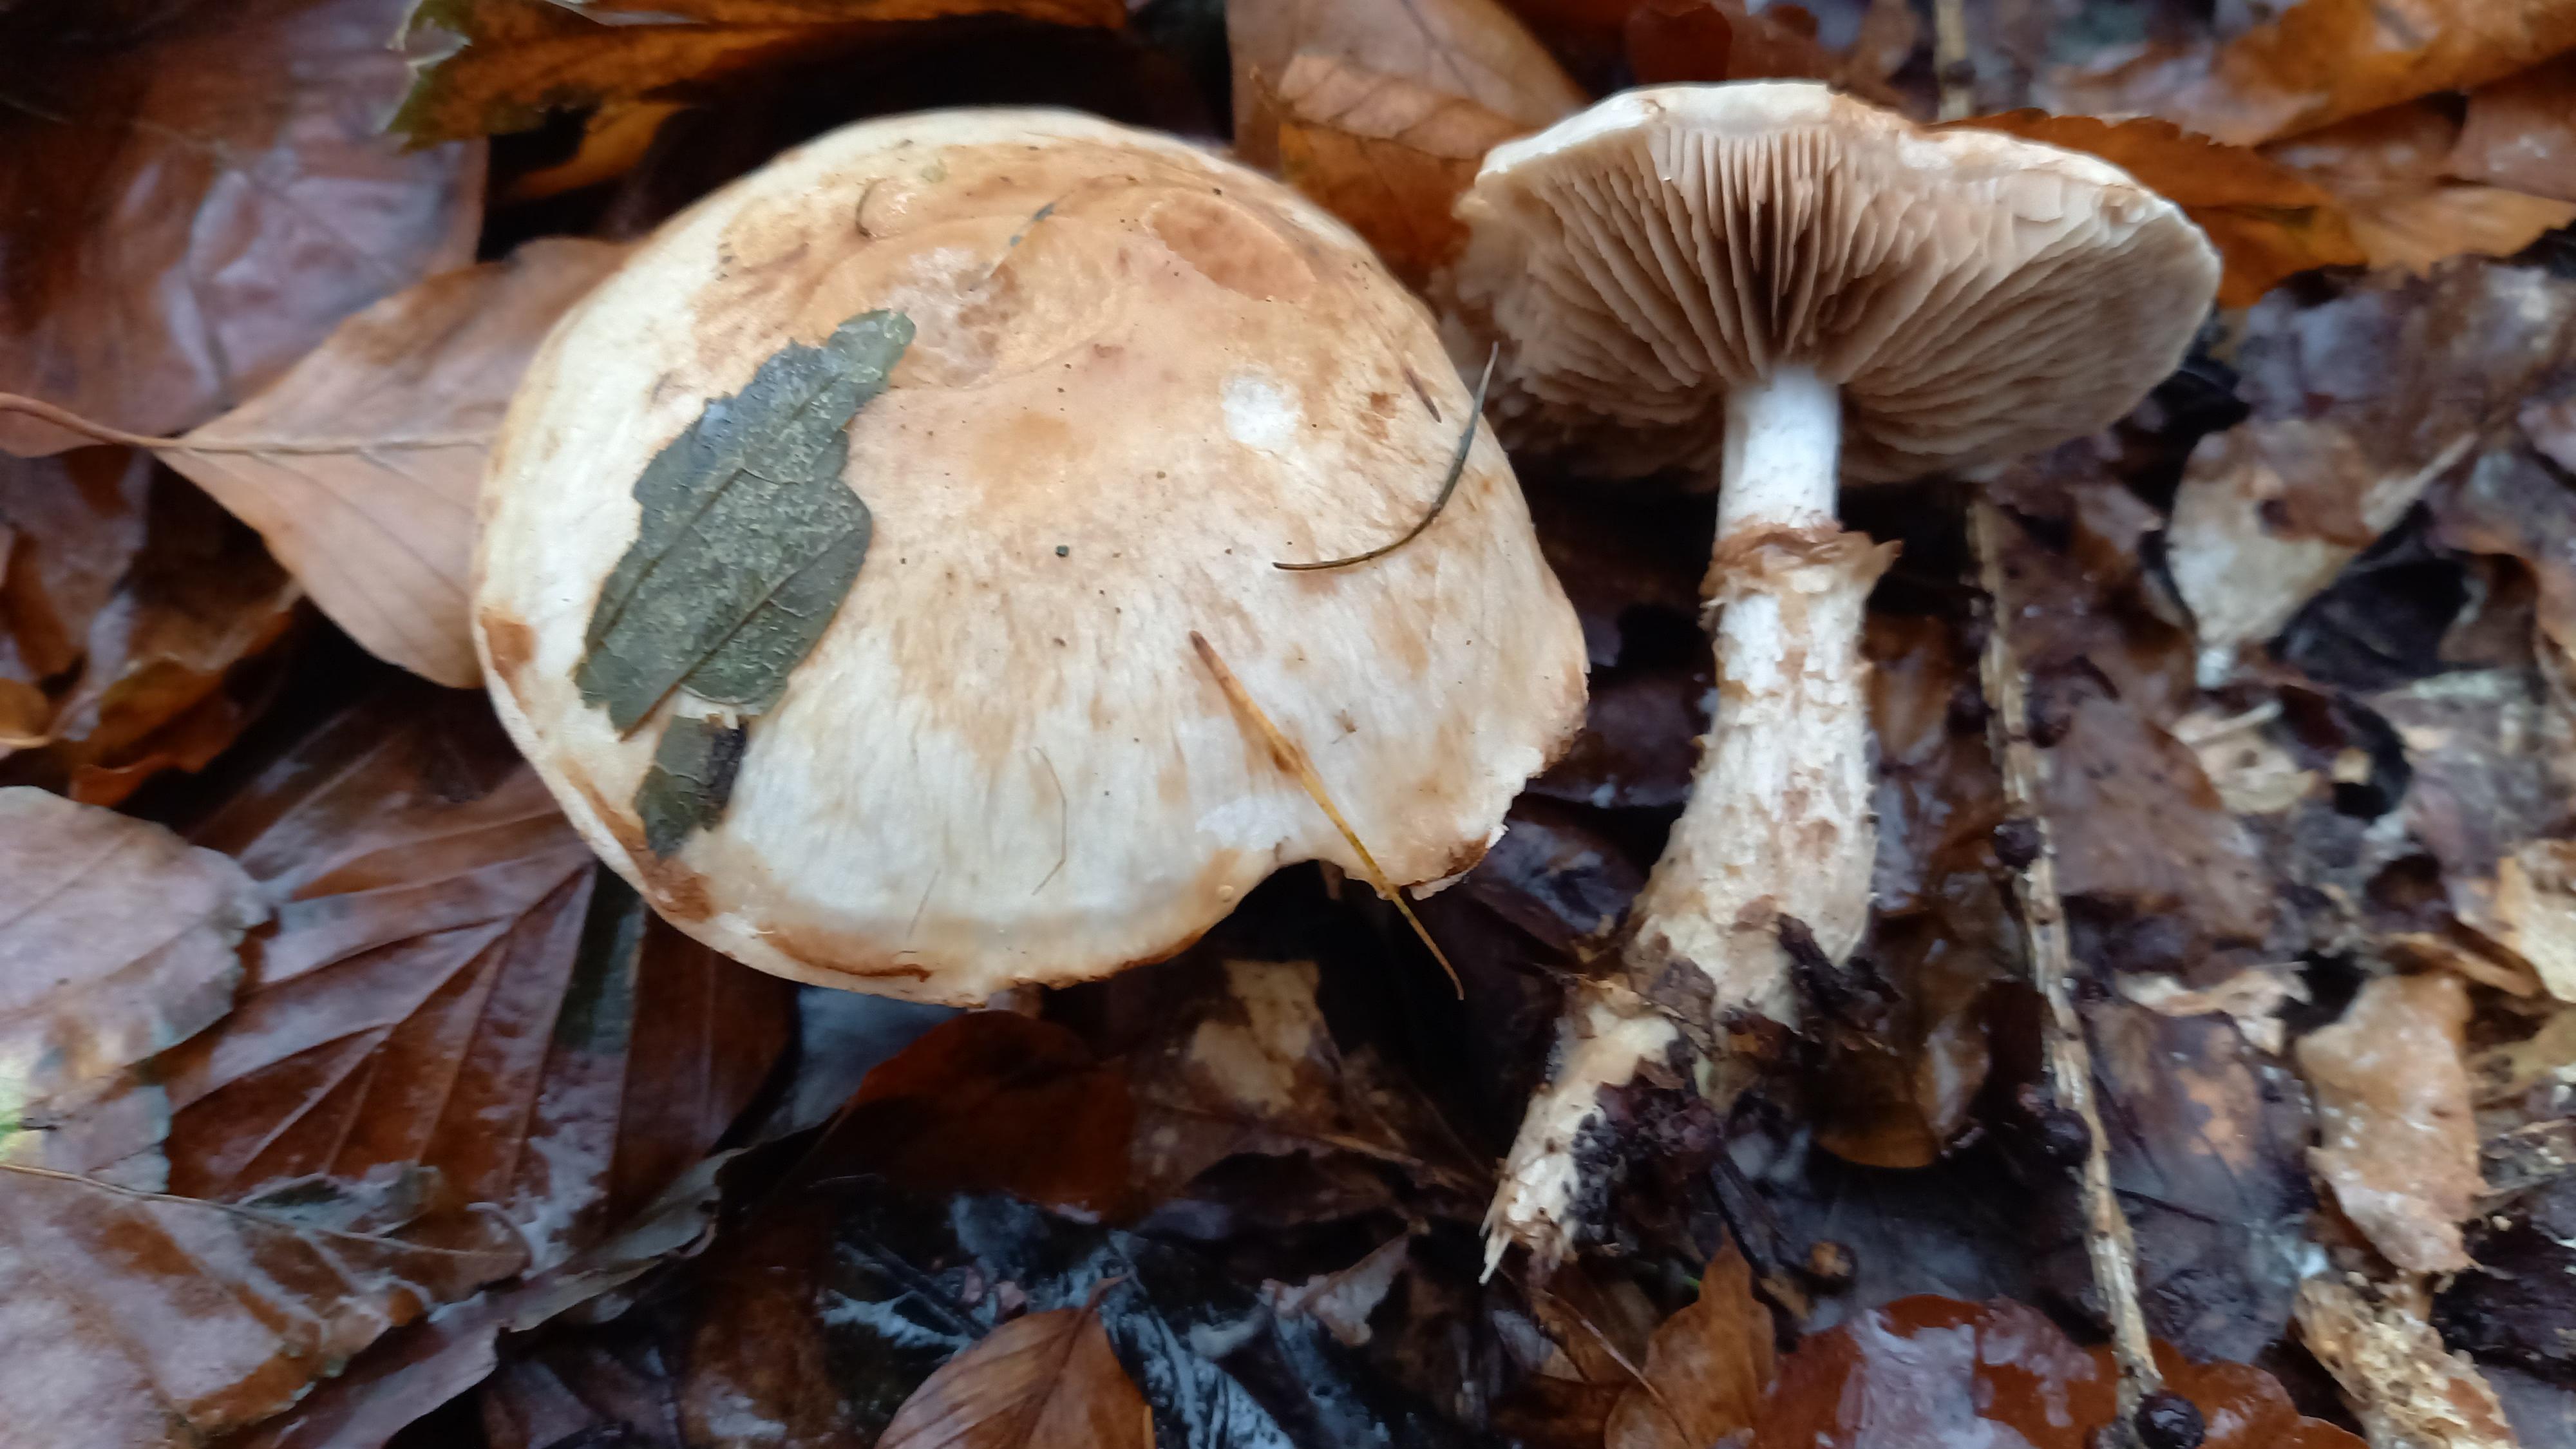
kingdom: Fungi
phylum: Basidiomycota
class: Agaricomycetes
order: Agaricales
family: Hymenogastraceae
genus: Hebeloma
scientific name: Hebeloma radicosum
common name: pælerods-tåreblad
